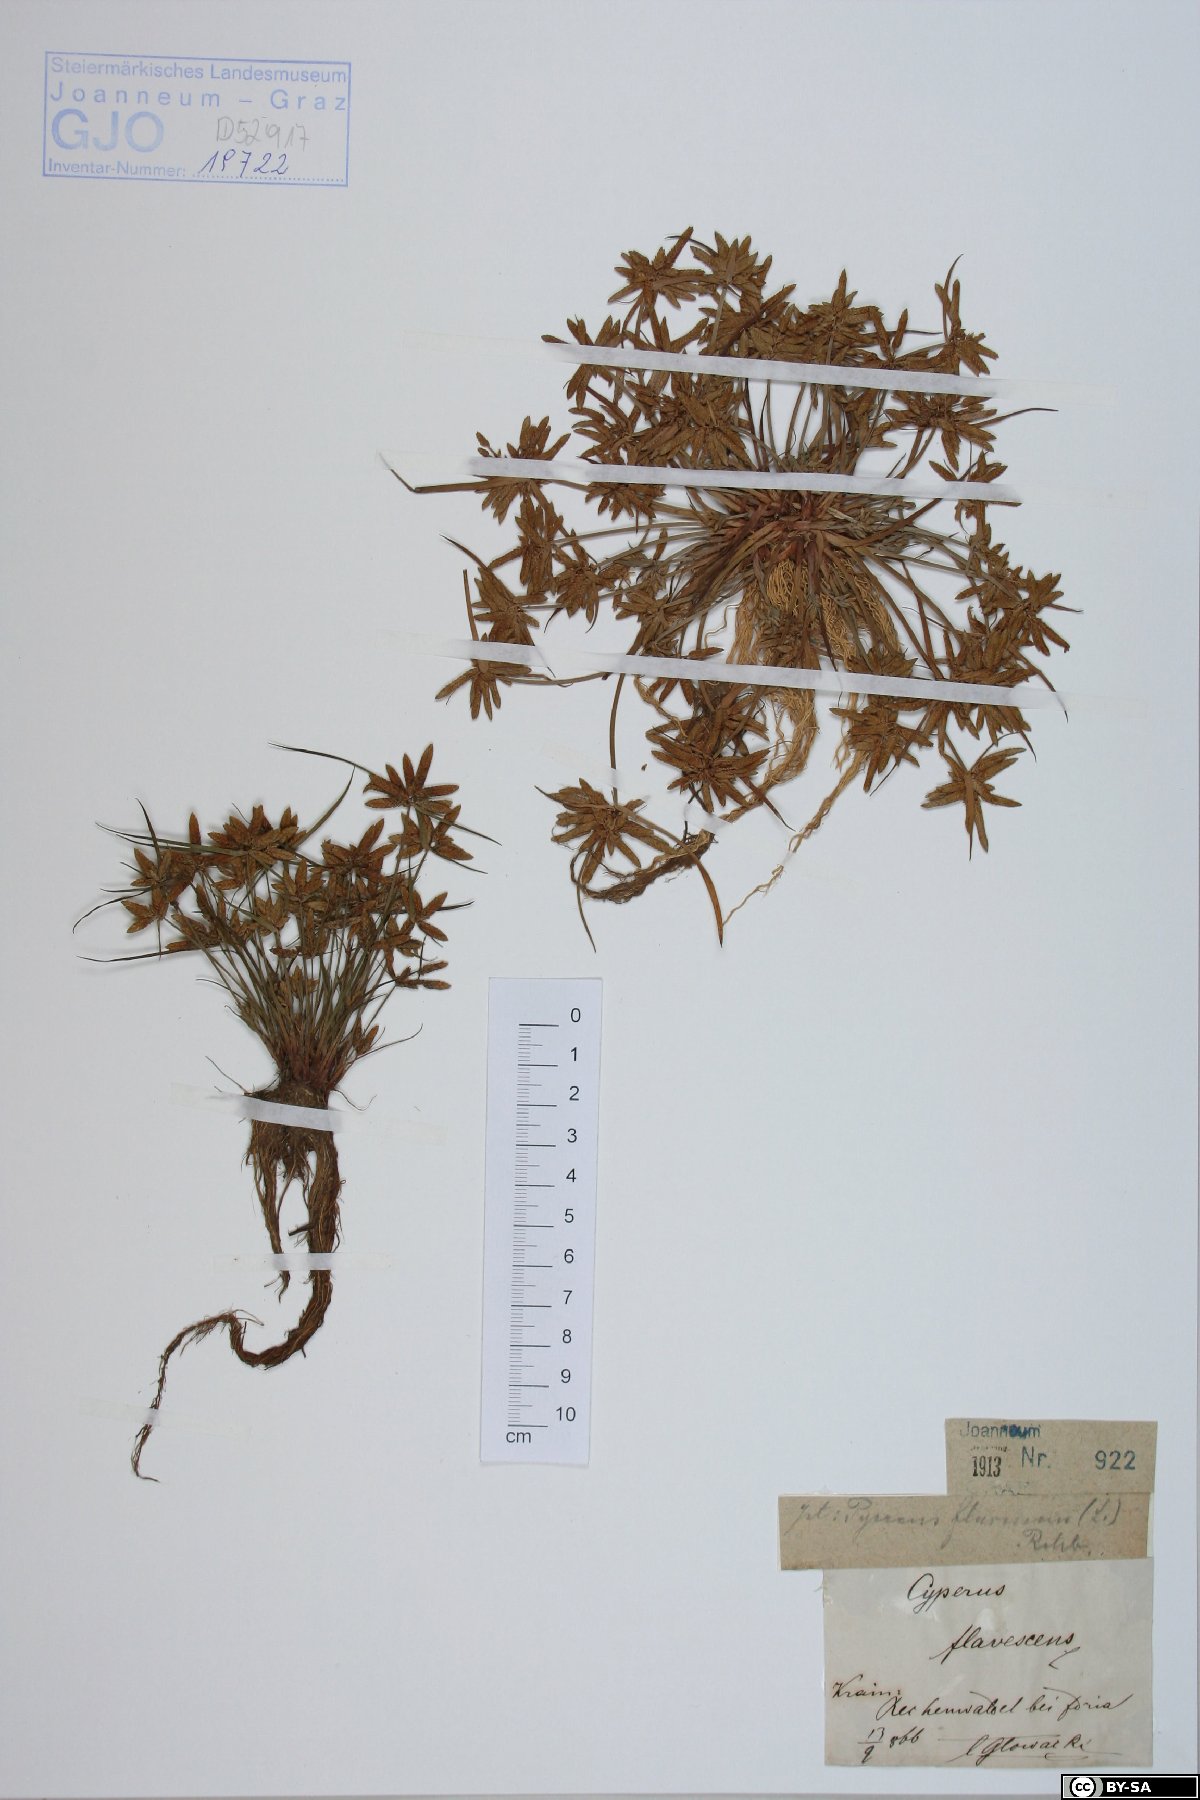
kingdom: Plantae
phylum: Tracheophyta
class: Liliopsida
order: Poales
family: Cyperaceae
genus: Cyperus
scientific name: Cyperus flavescens
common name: Yellow galingale
